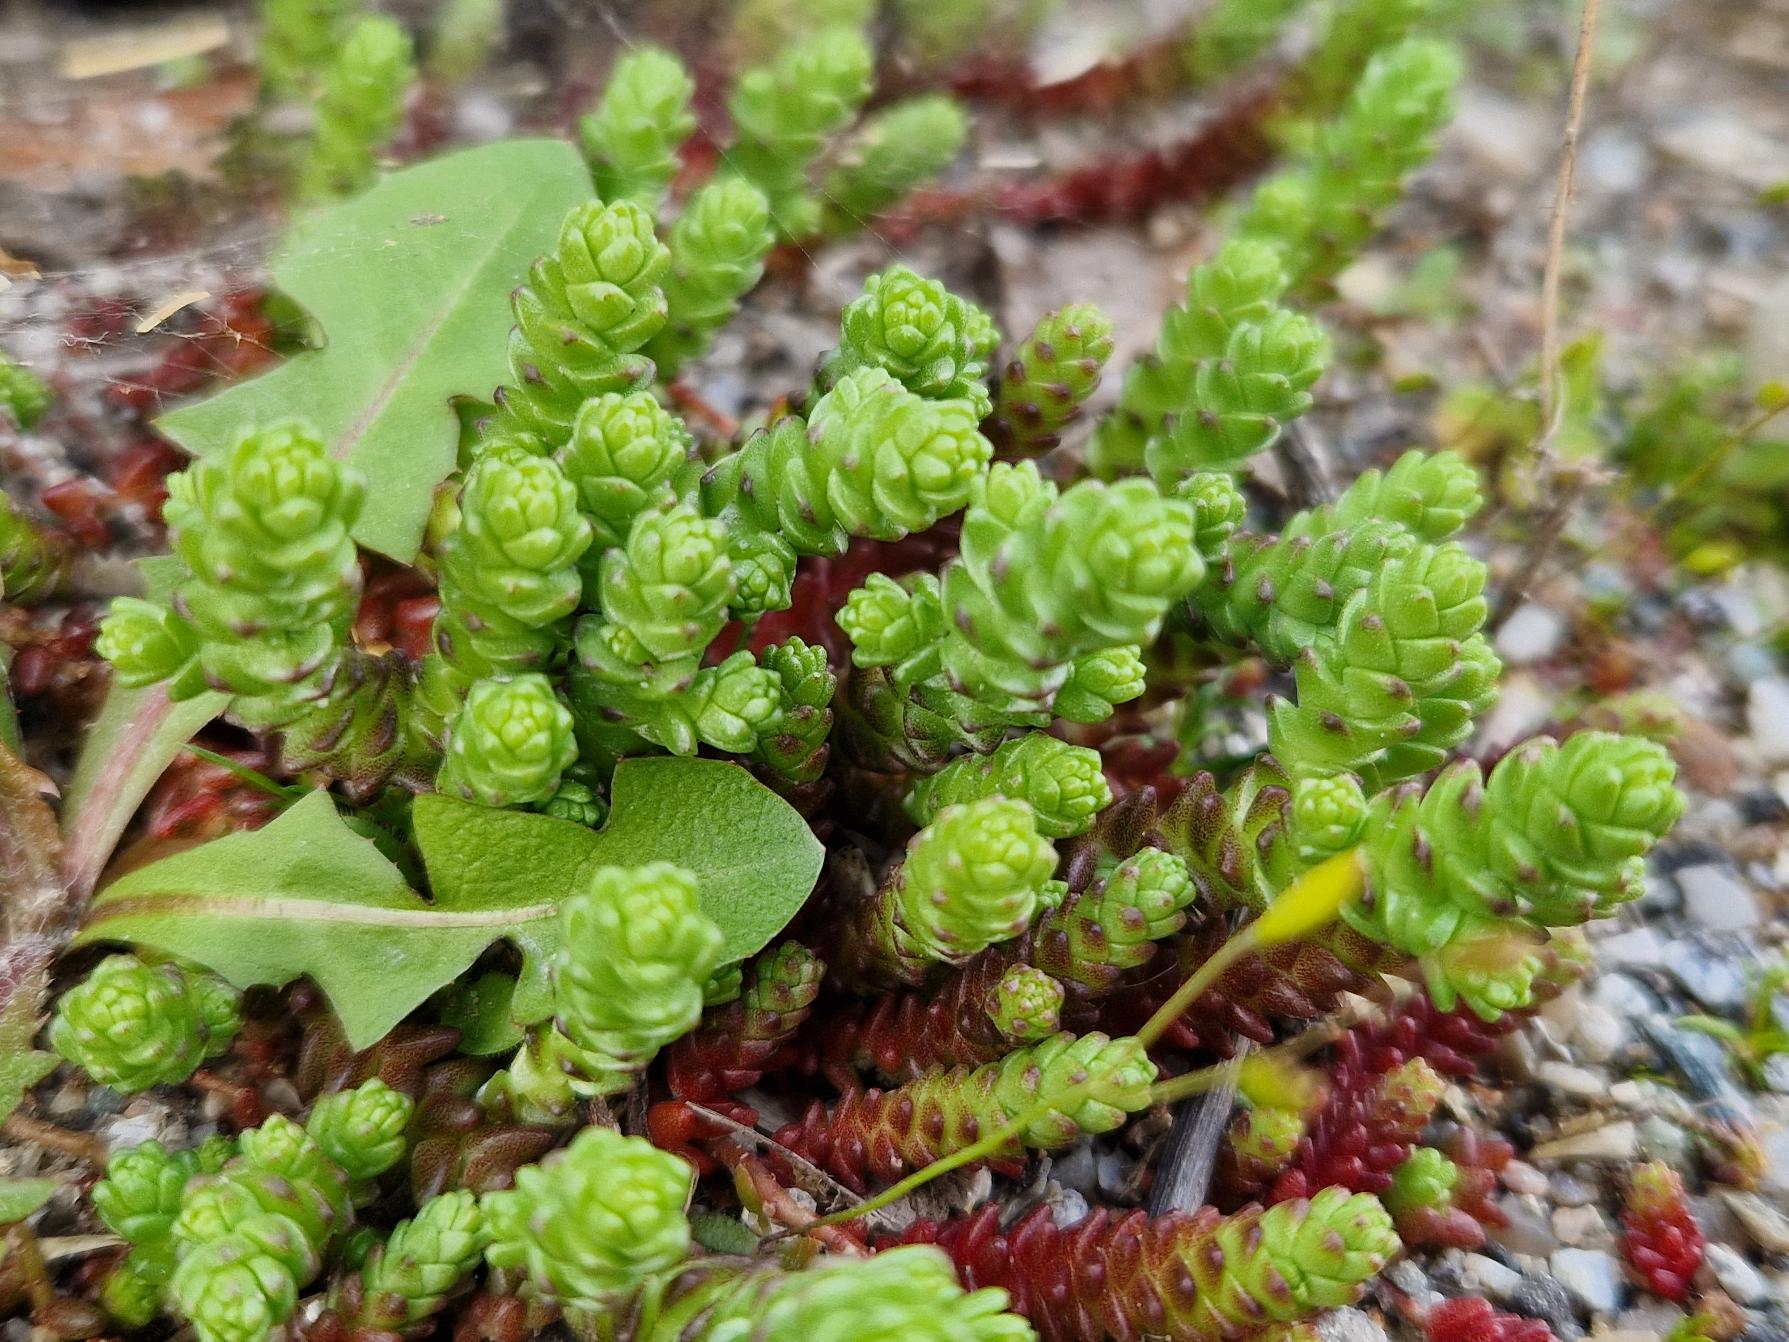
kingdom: Plantae
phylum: Tracheophyta
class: Magnoliopsida
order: Saxifragales
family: Crassulaceae
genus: Sedum
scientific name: Sedum acre
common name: Bidende stenurt
